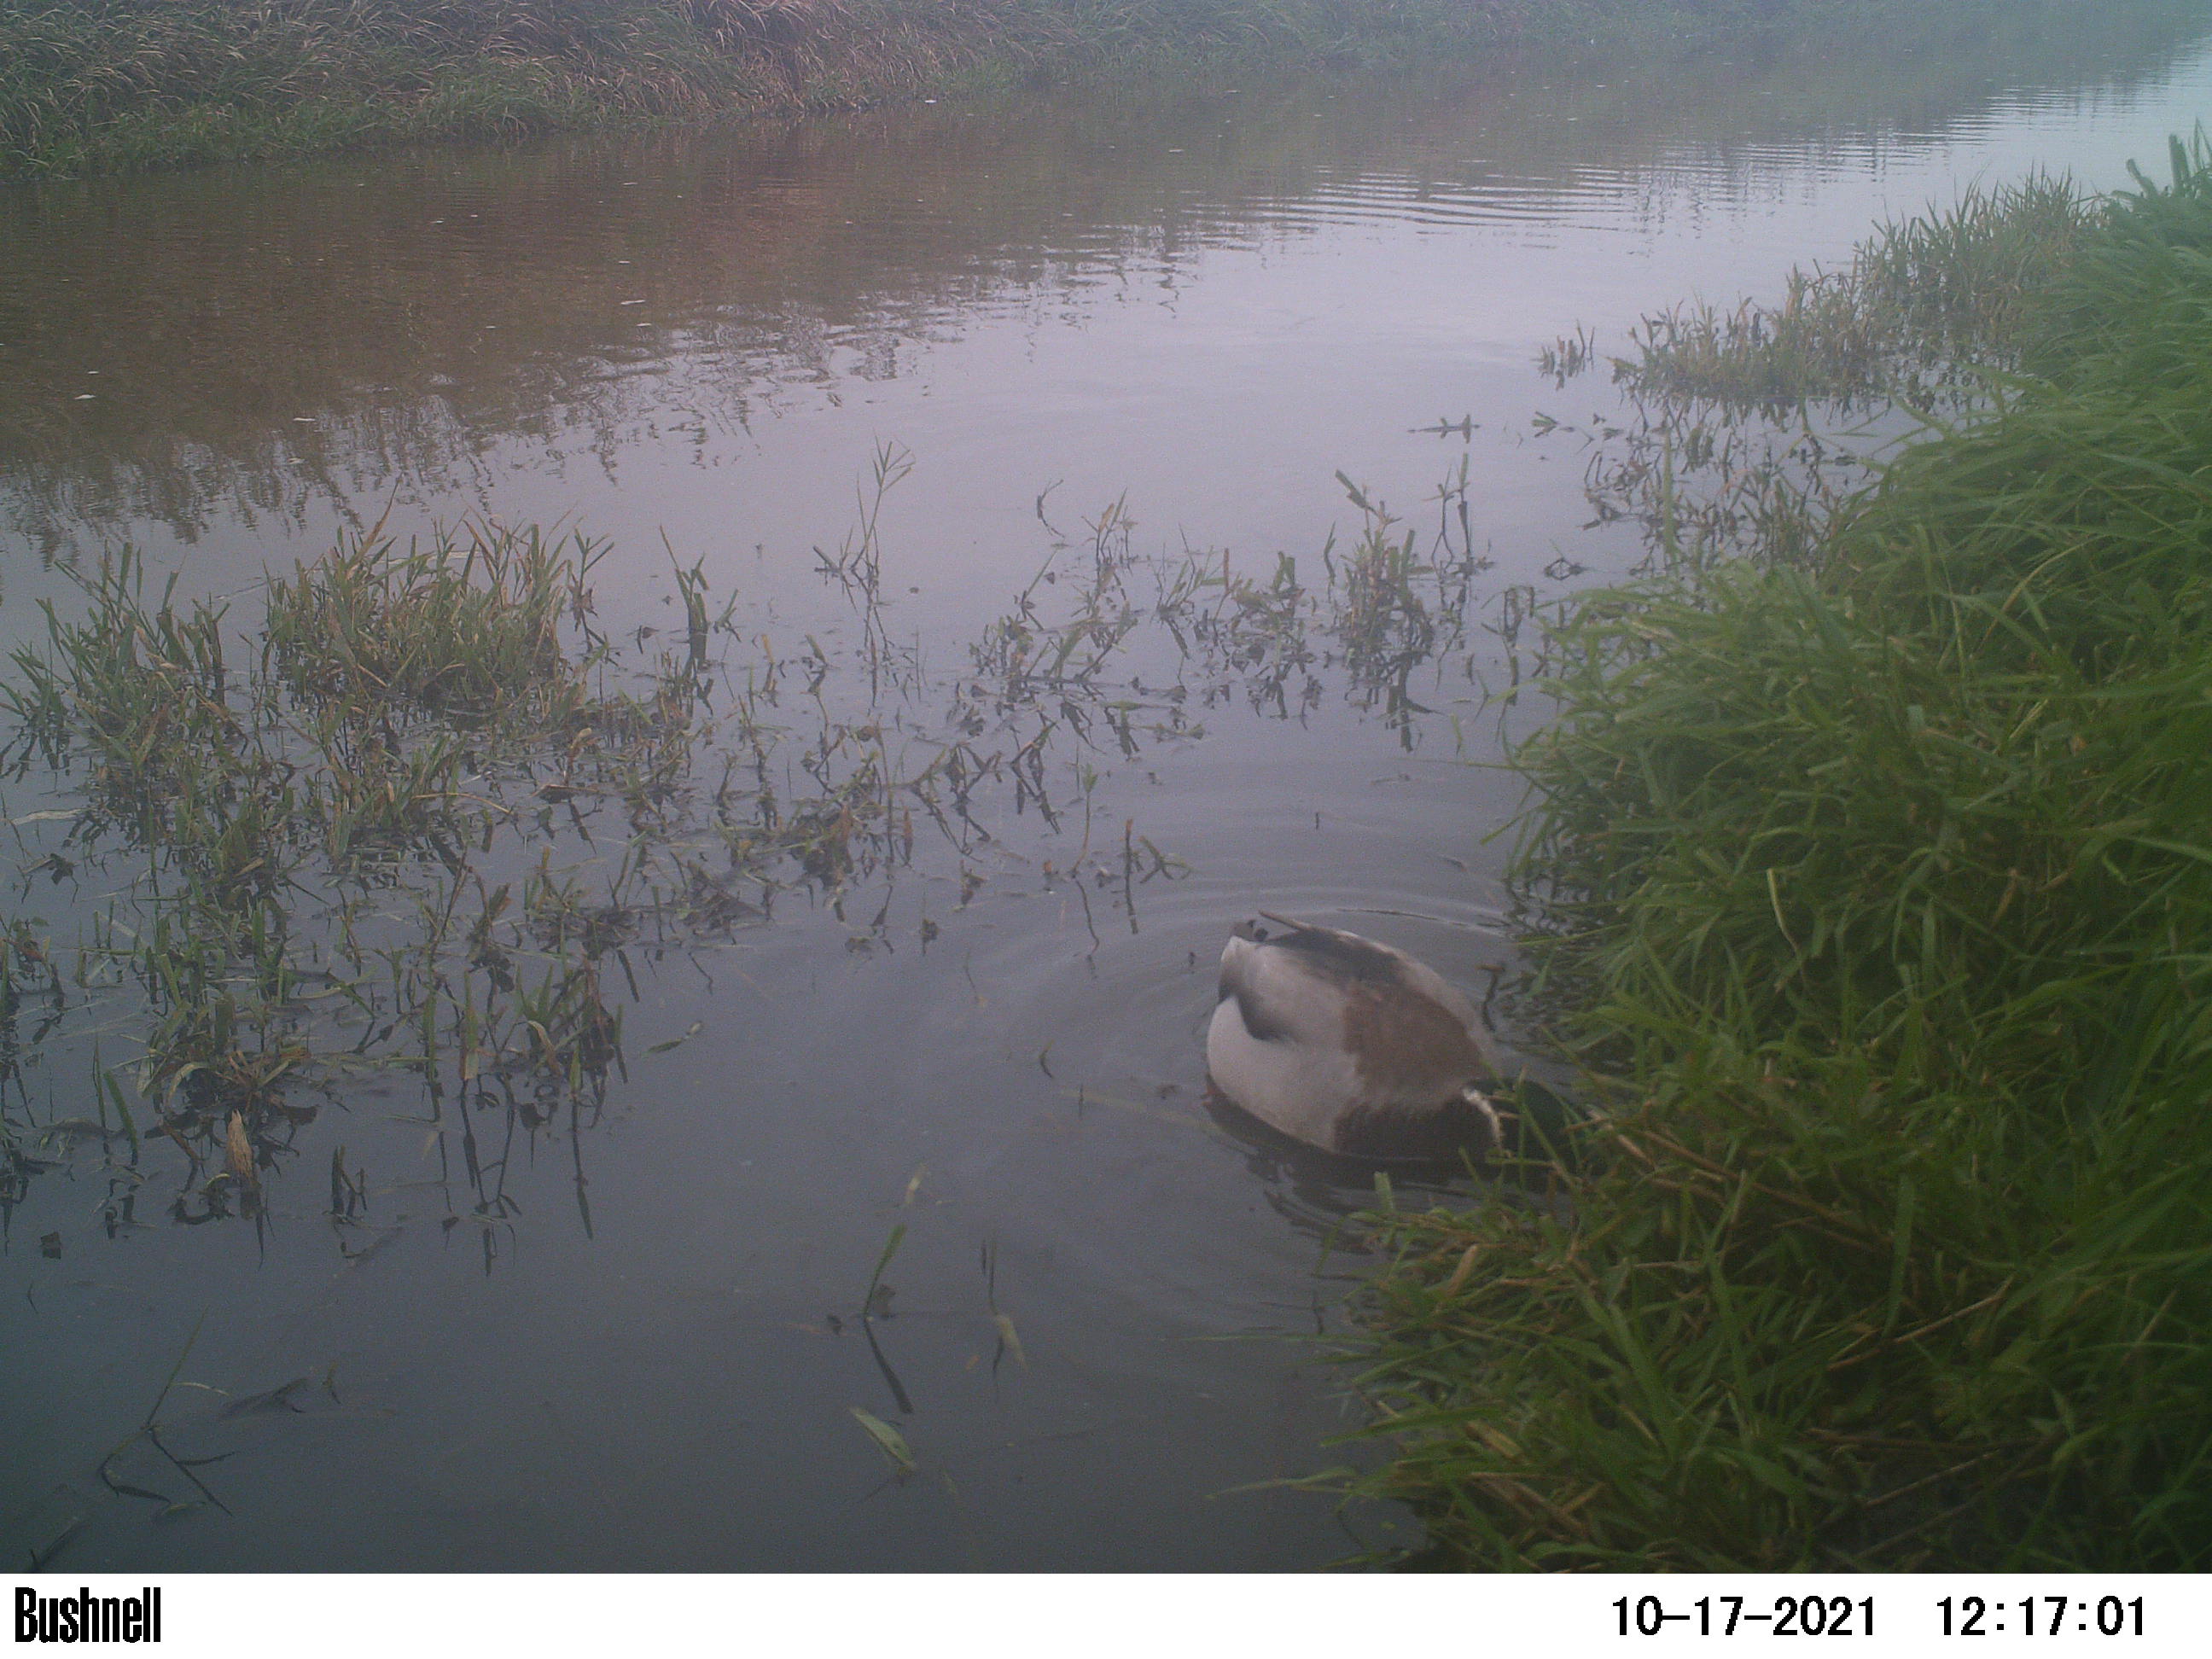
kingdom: Animalia
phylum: Chordata
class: Aves
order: Anseriformes
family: Anatidae
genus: Anas
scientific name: Anas
